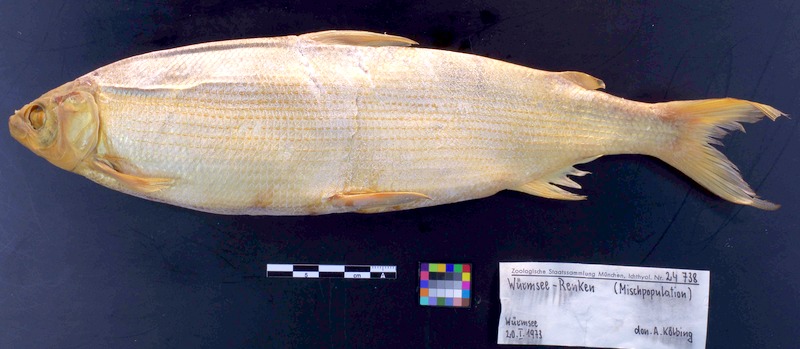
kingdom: Animalia
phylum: Chordata
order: Salmoniformes
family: Salmonidae
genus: Coregonus
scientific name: Coregonus renke
